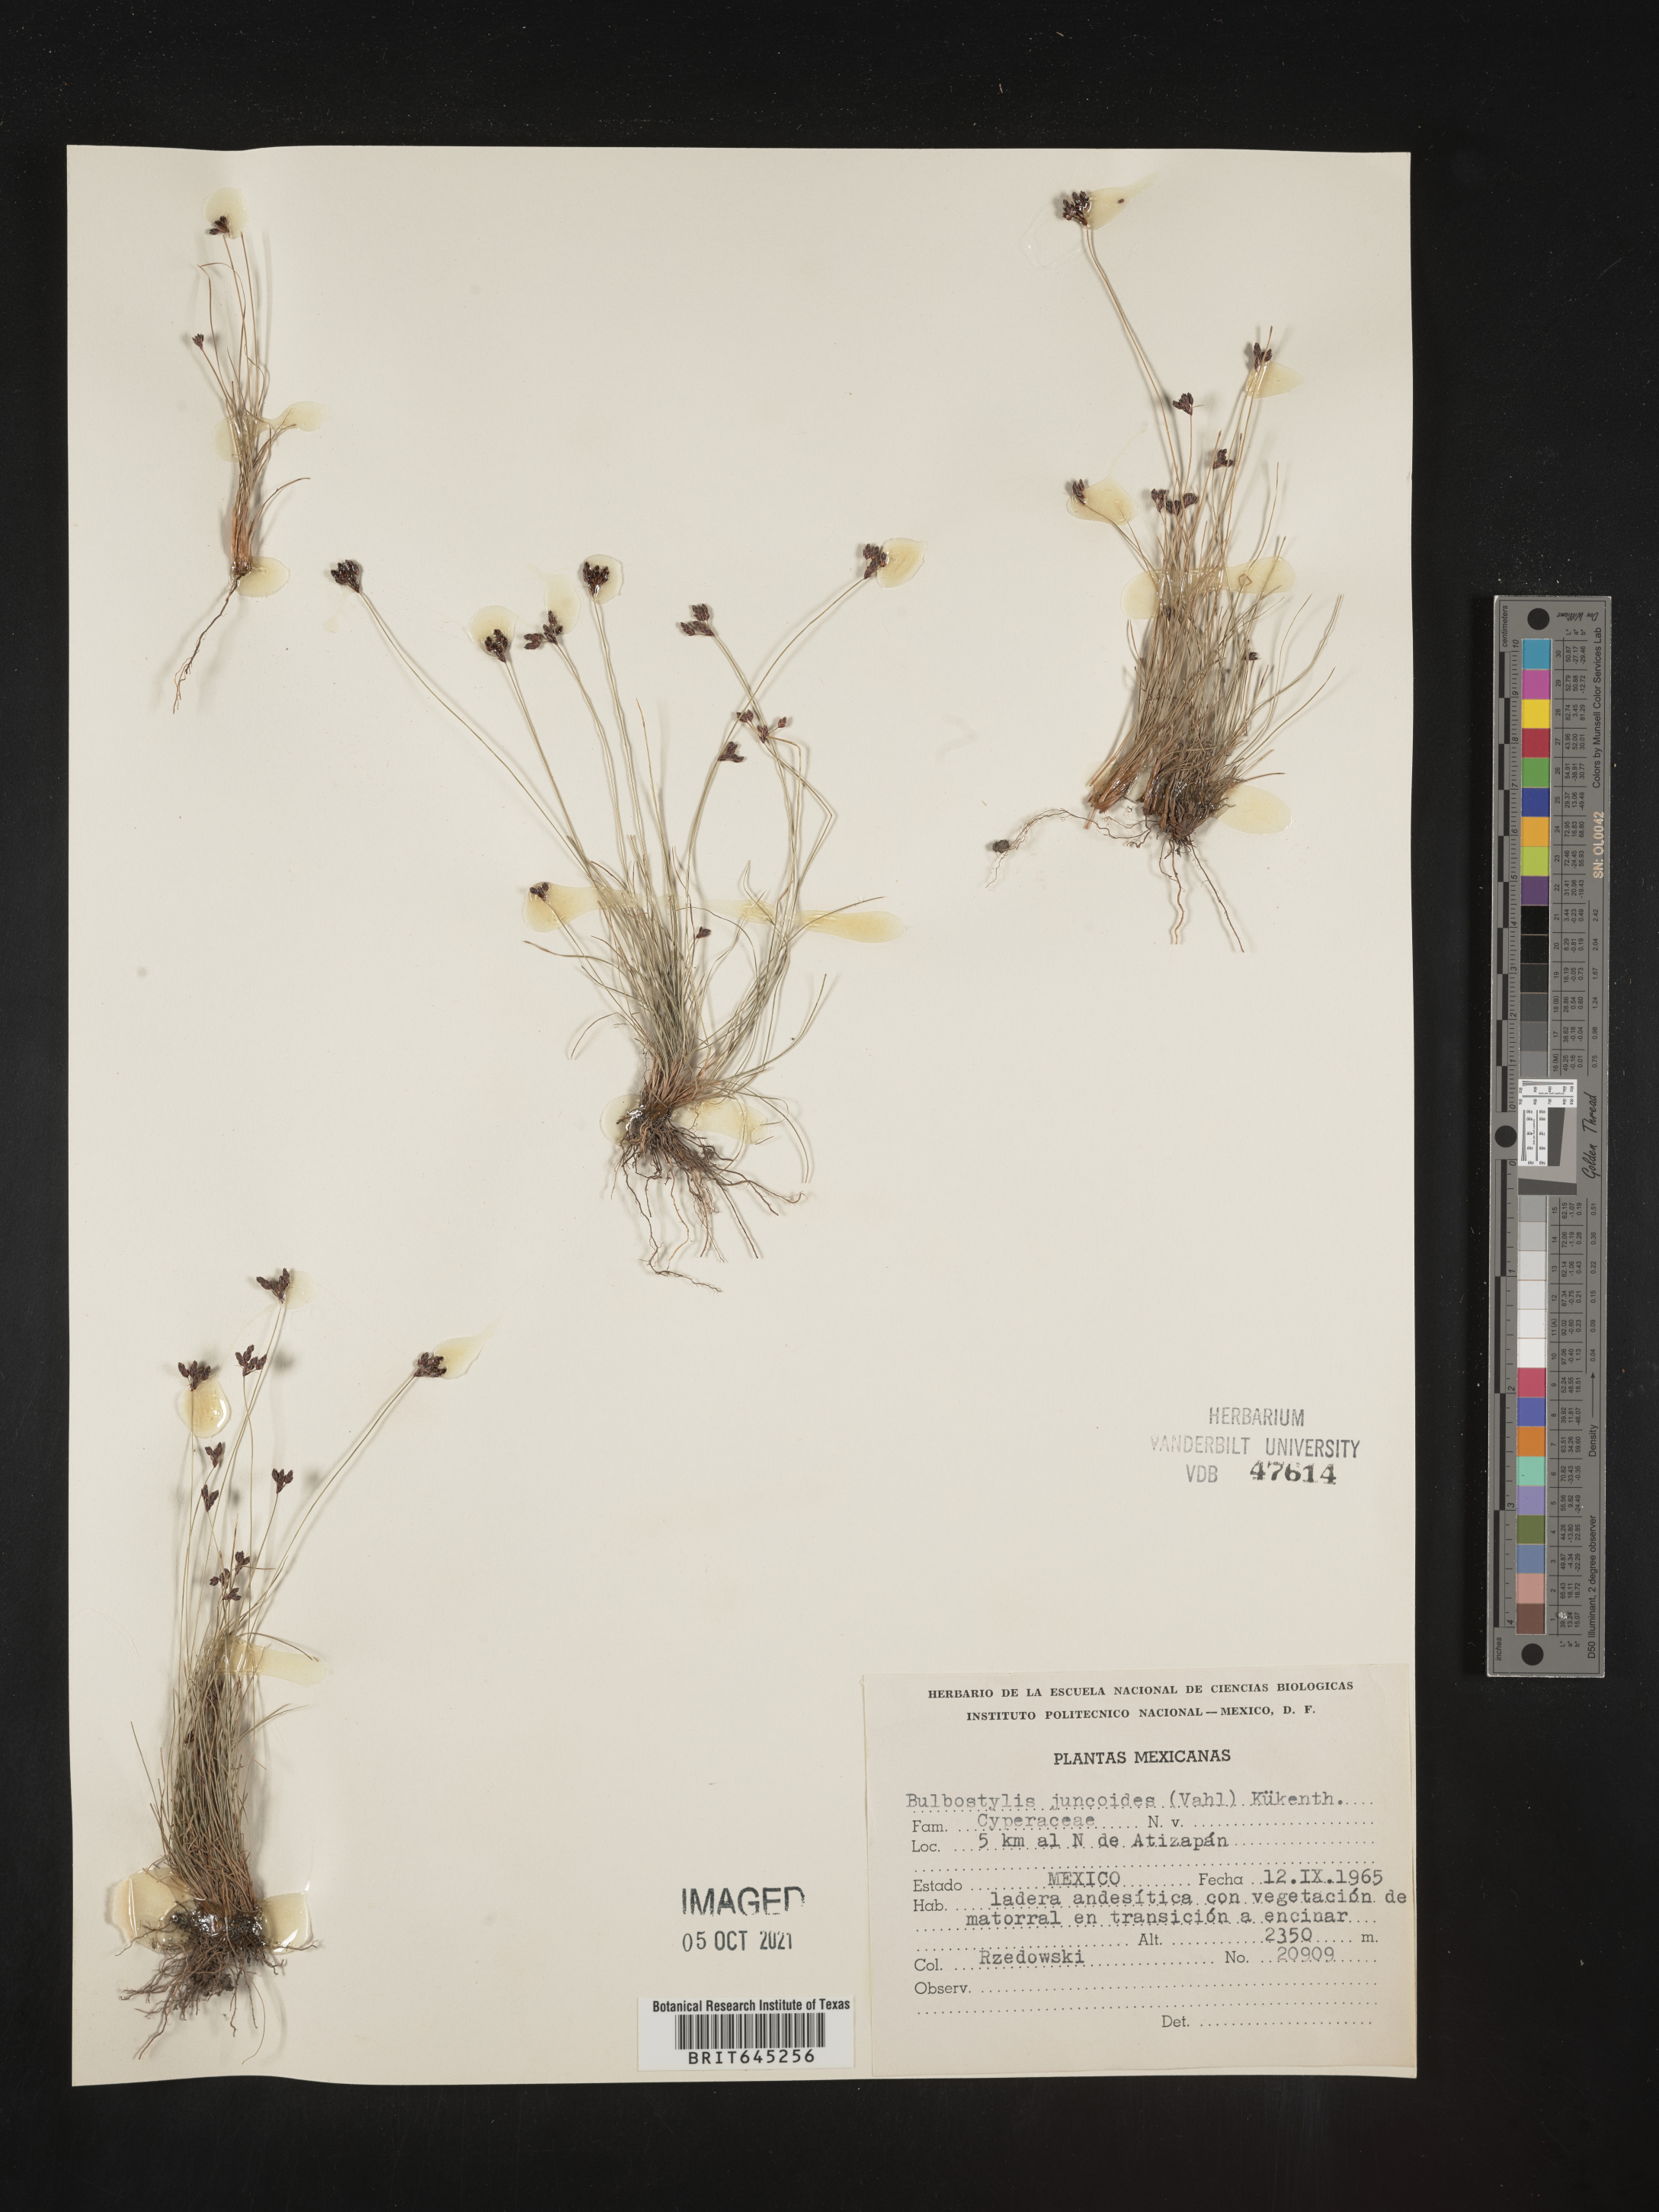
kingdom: Plantae
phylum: Tracheophyta
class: Liliopsida
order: Poales
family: Cyperaceae
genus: Bulbostylis
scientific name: Bulbostylis juncoides
